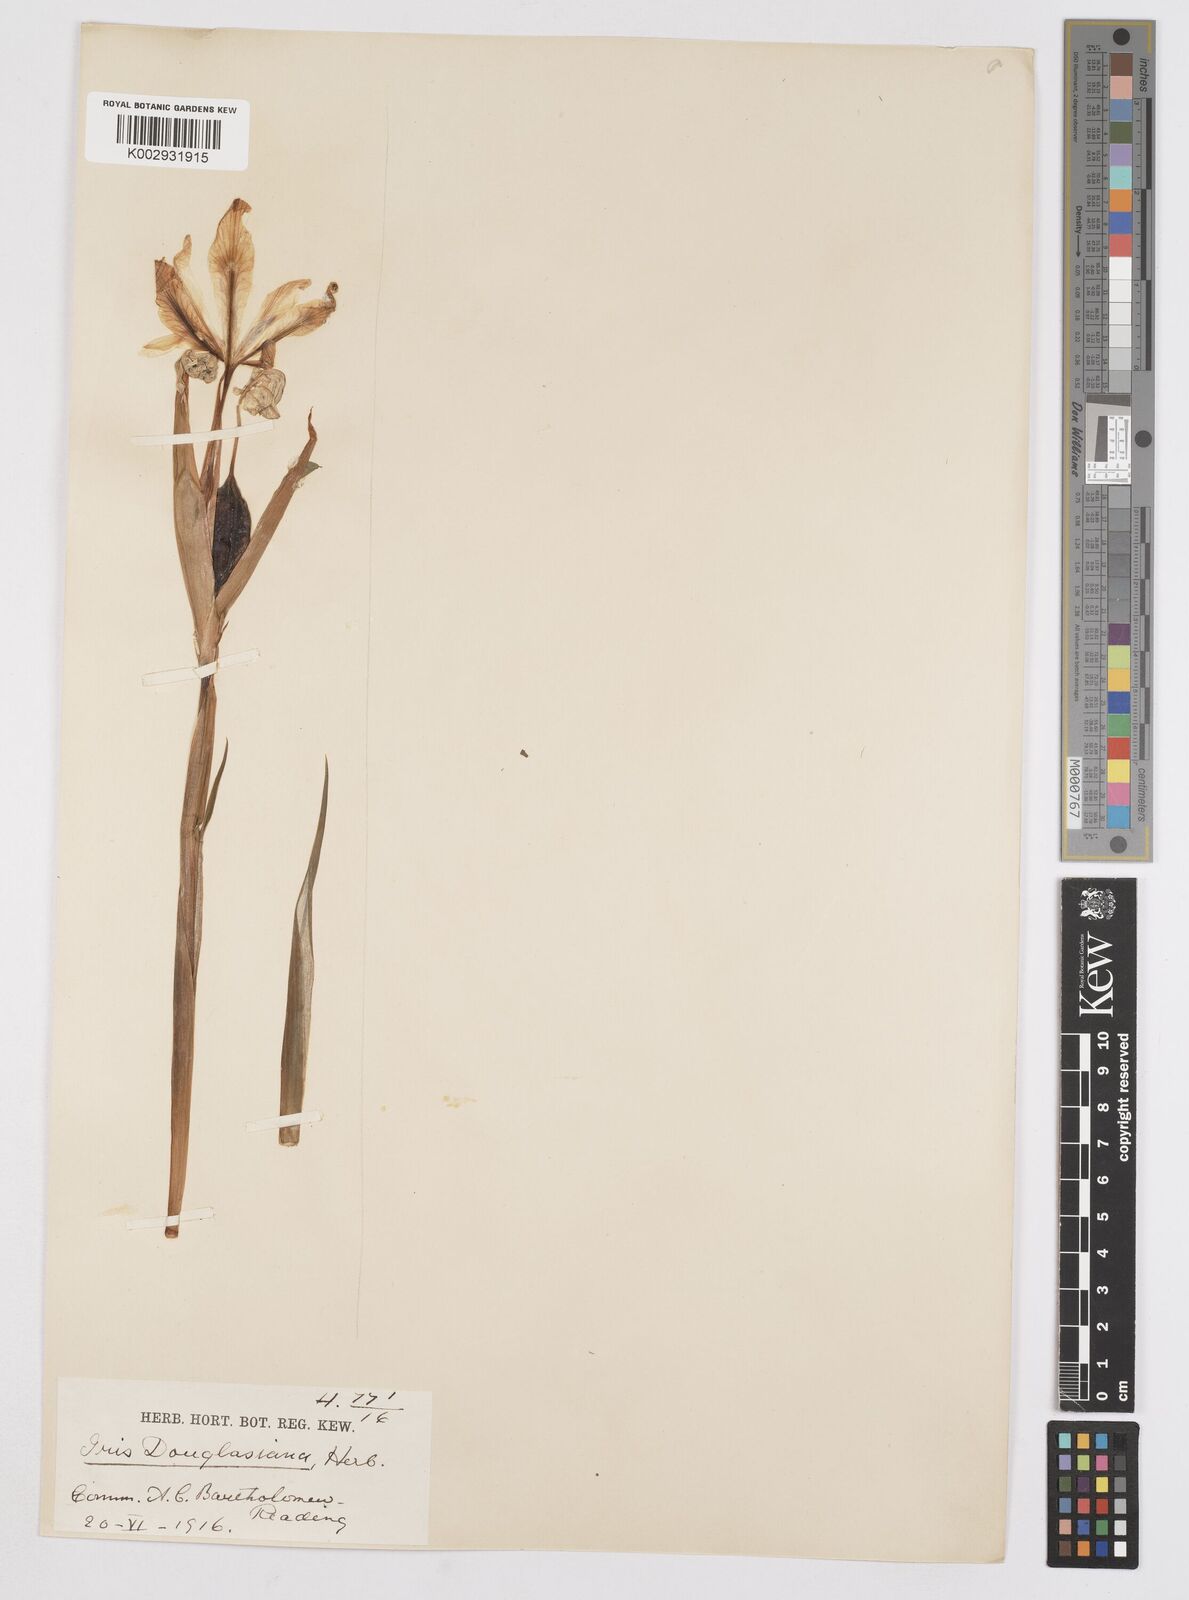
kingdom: Plantae
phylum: Tracheophyta
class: Liliopsida
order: Asparagales
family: Iridaceae
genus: Iris
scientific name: Iris douglasiana
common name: Marin iris
